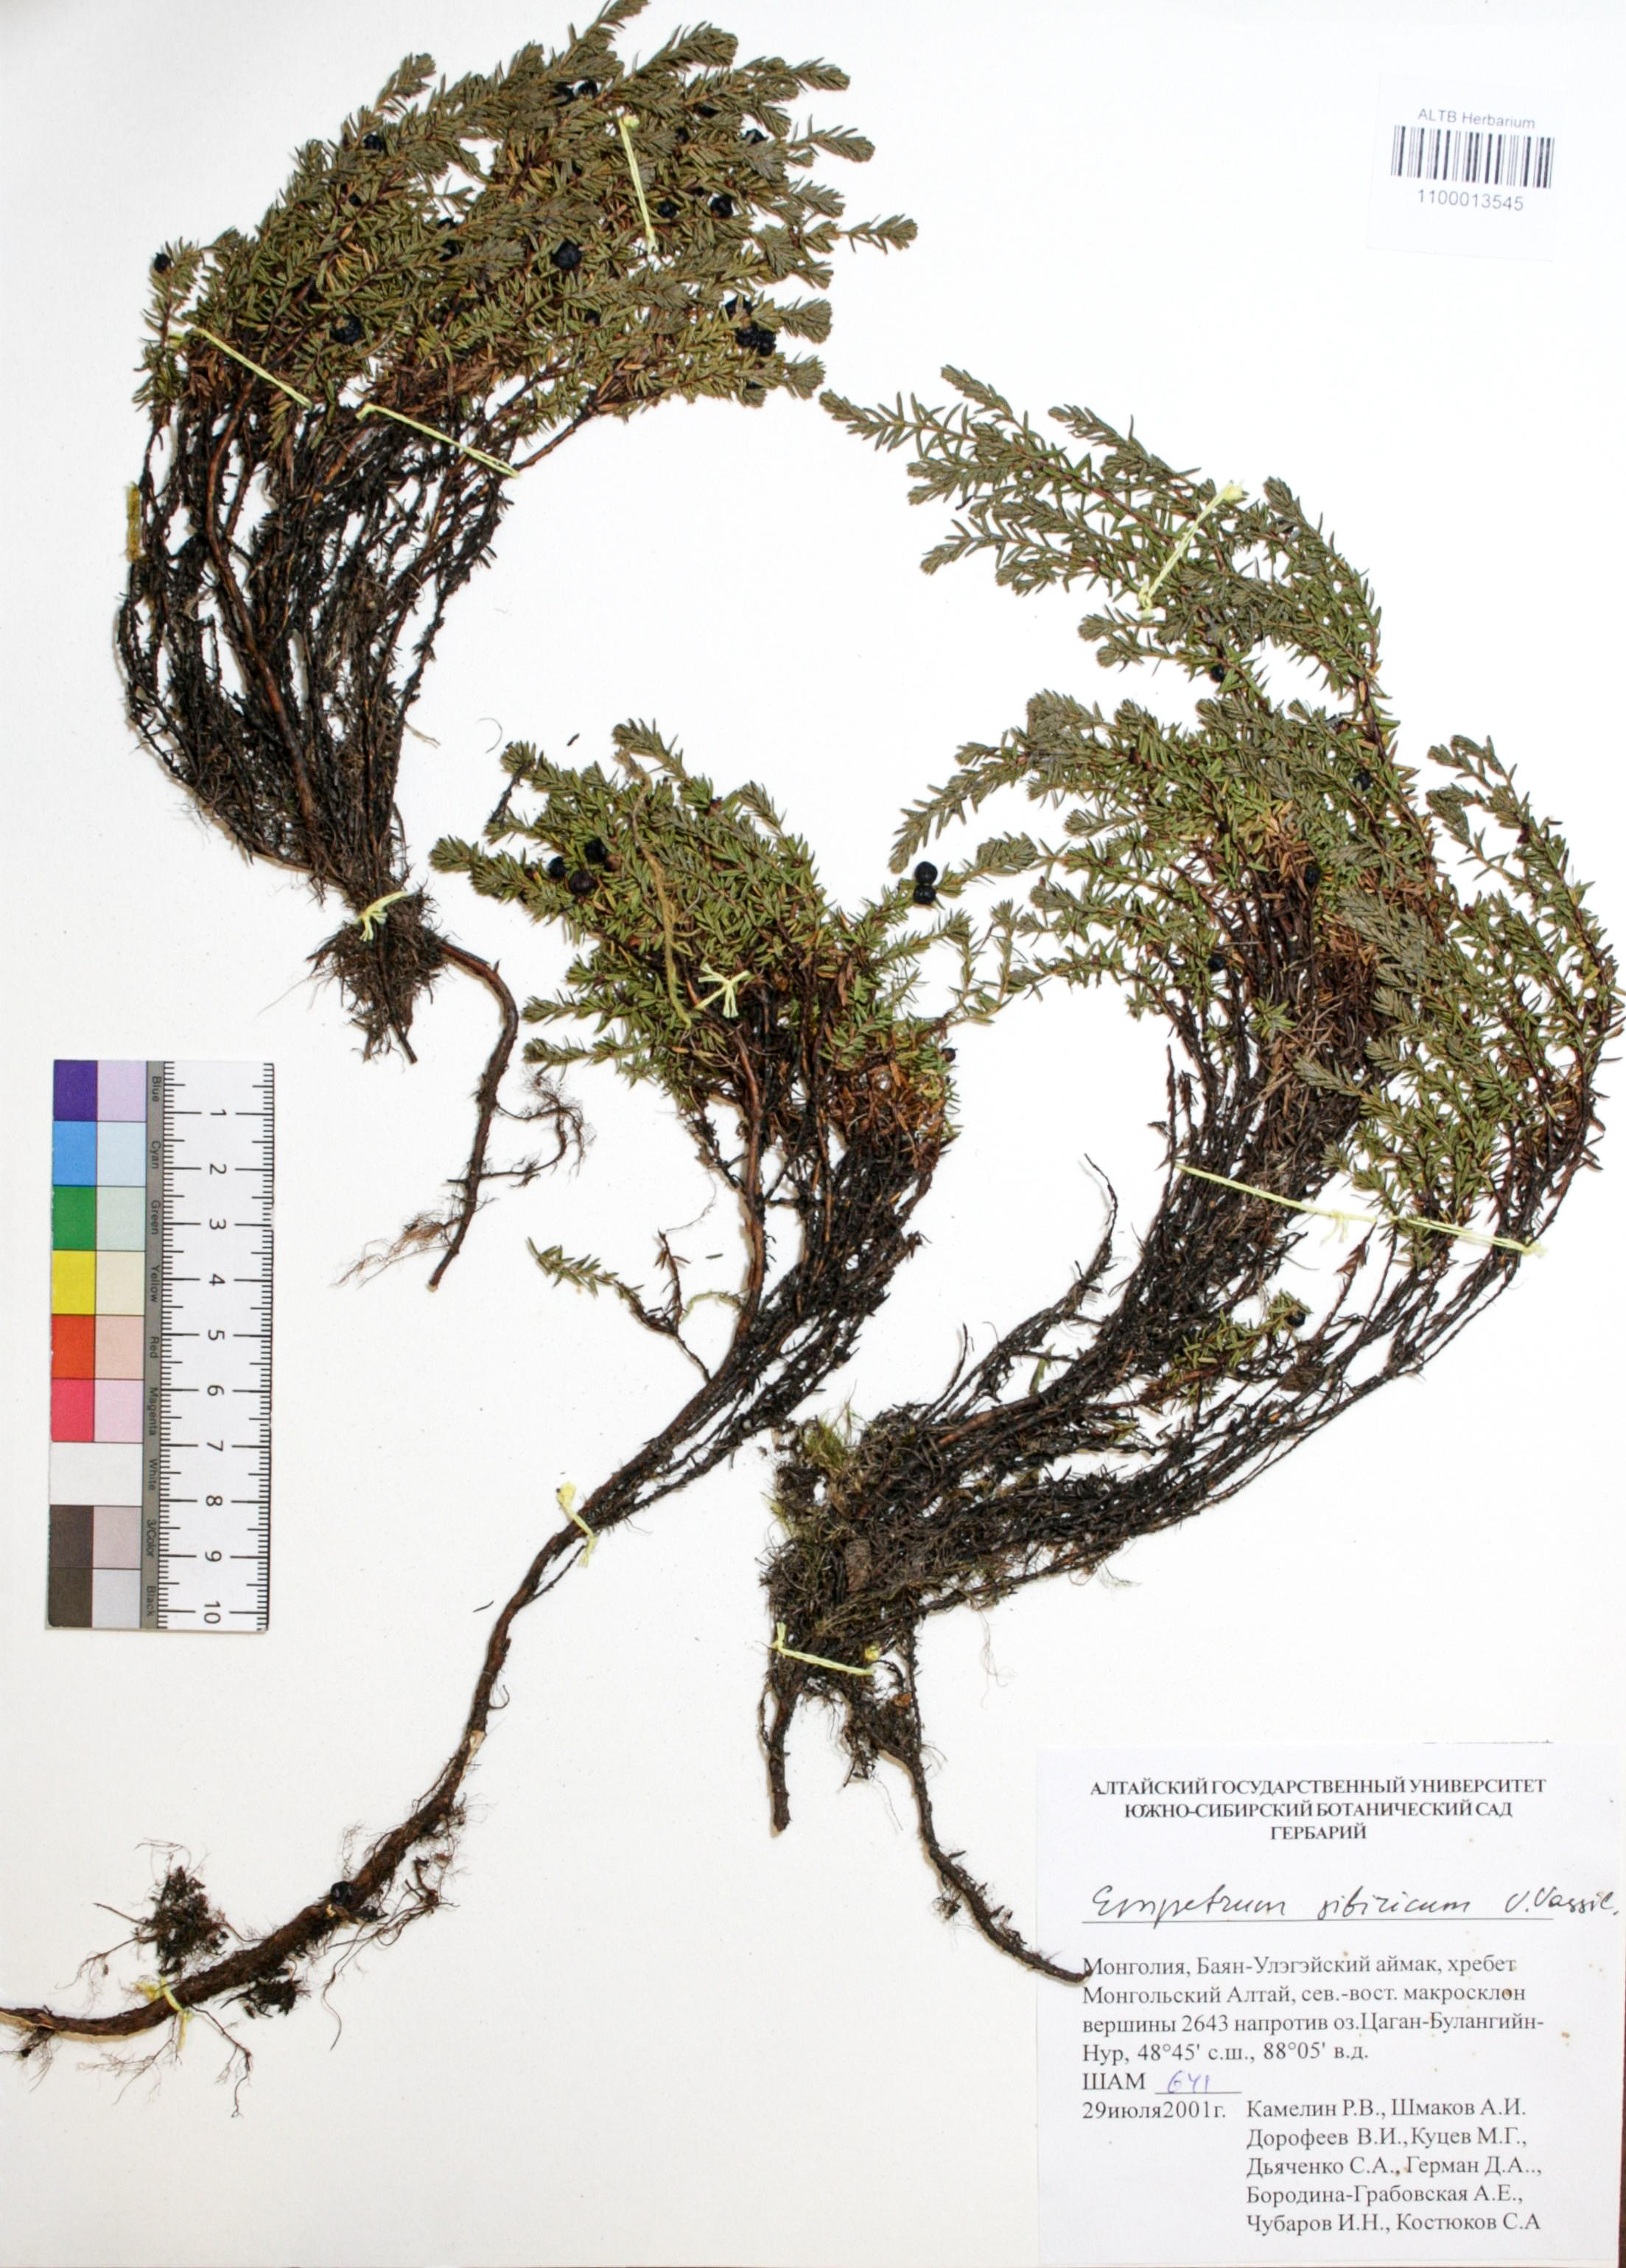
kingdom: Plantae
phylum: Tracheophyta
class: Magnoliopsida
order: Ericales
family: Ericaceae
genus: Empetrum
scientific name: Empetrum nigrum
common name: Black crowberry
